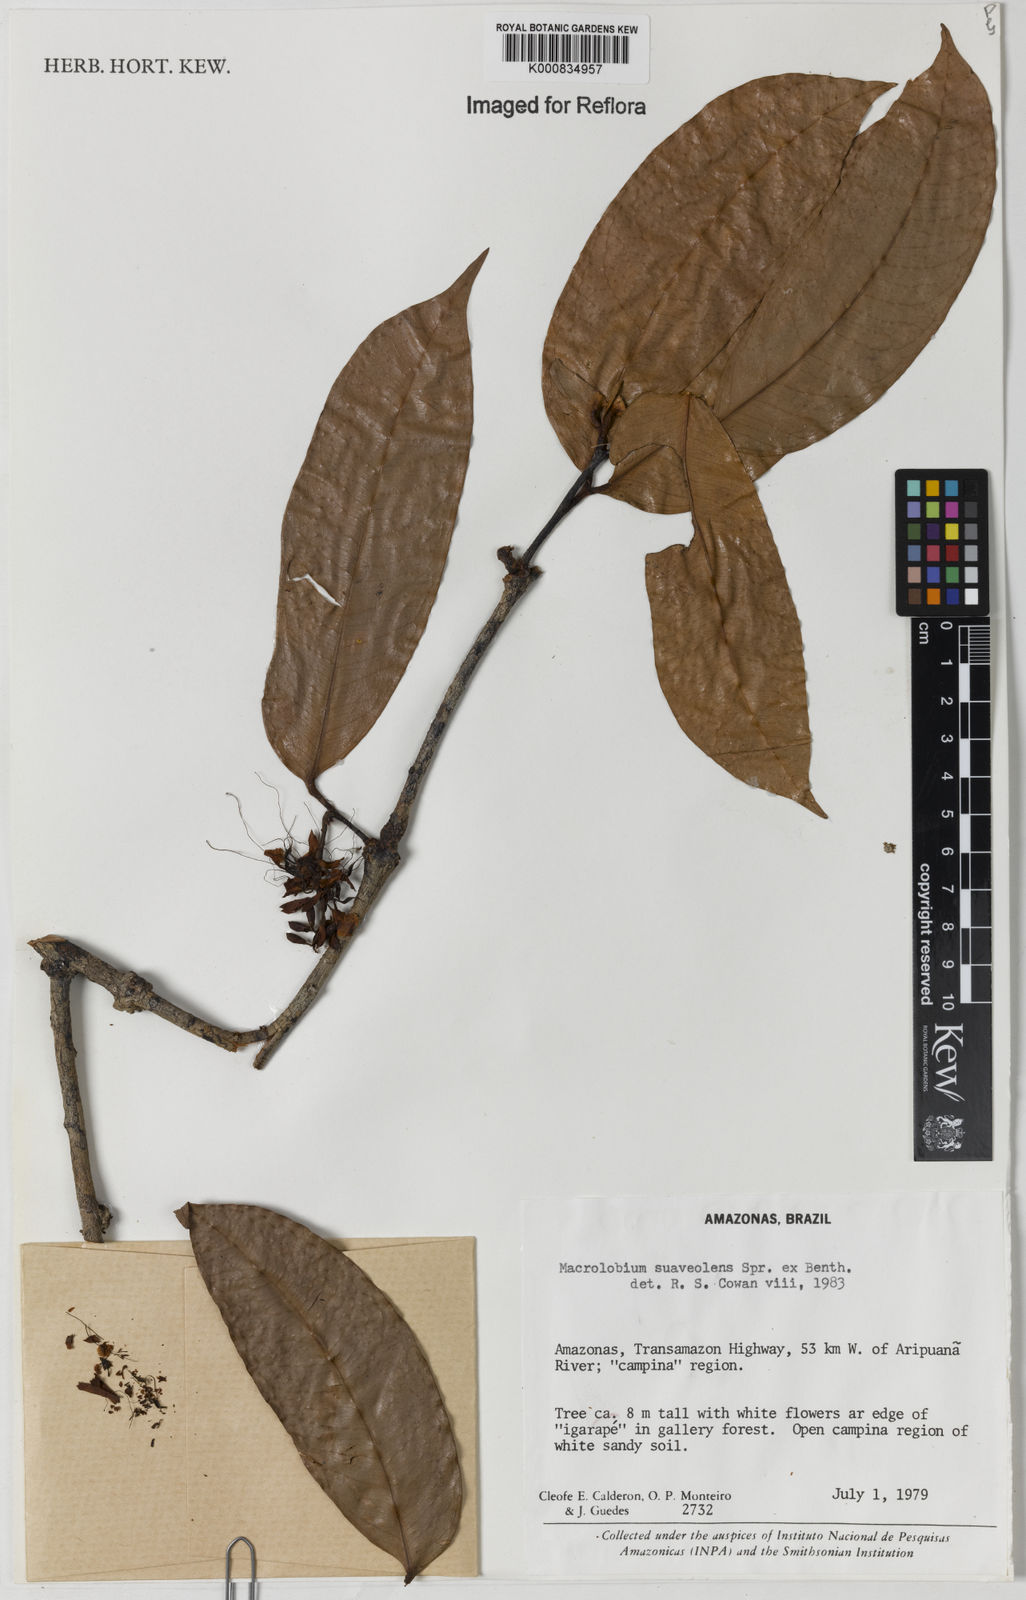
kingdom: Plantae
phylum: Tracheophyta
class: Magnoliopsida
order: Fabales
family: Fabaceae
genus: Macrolobium
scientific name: Macrolobium suaveolens
